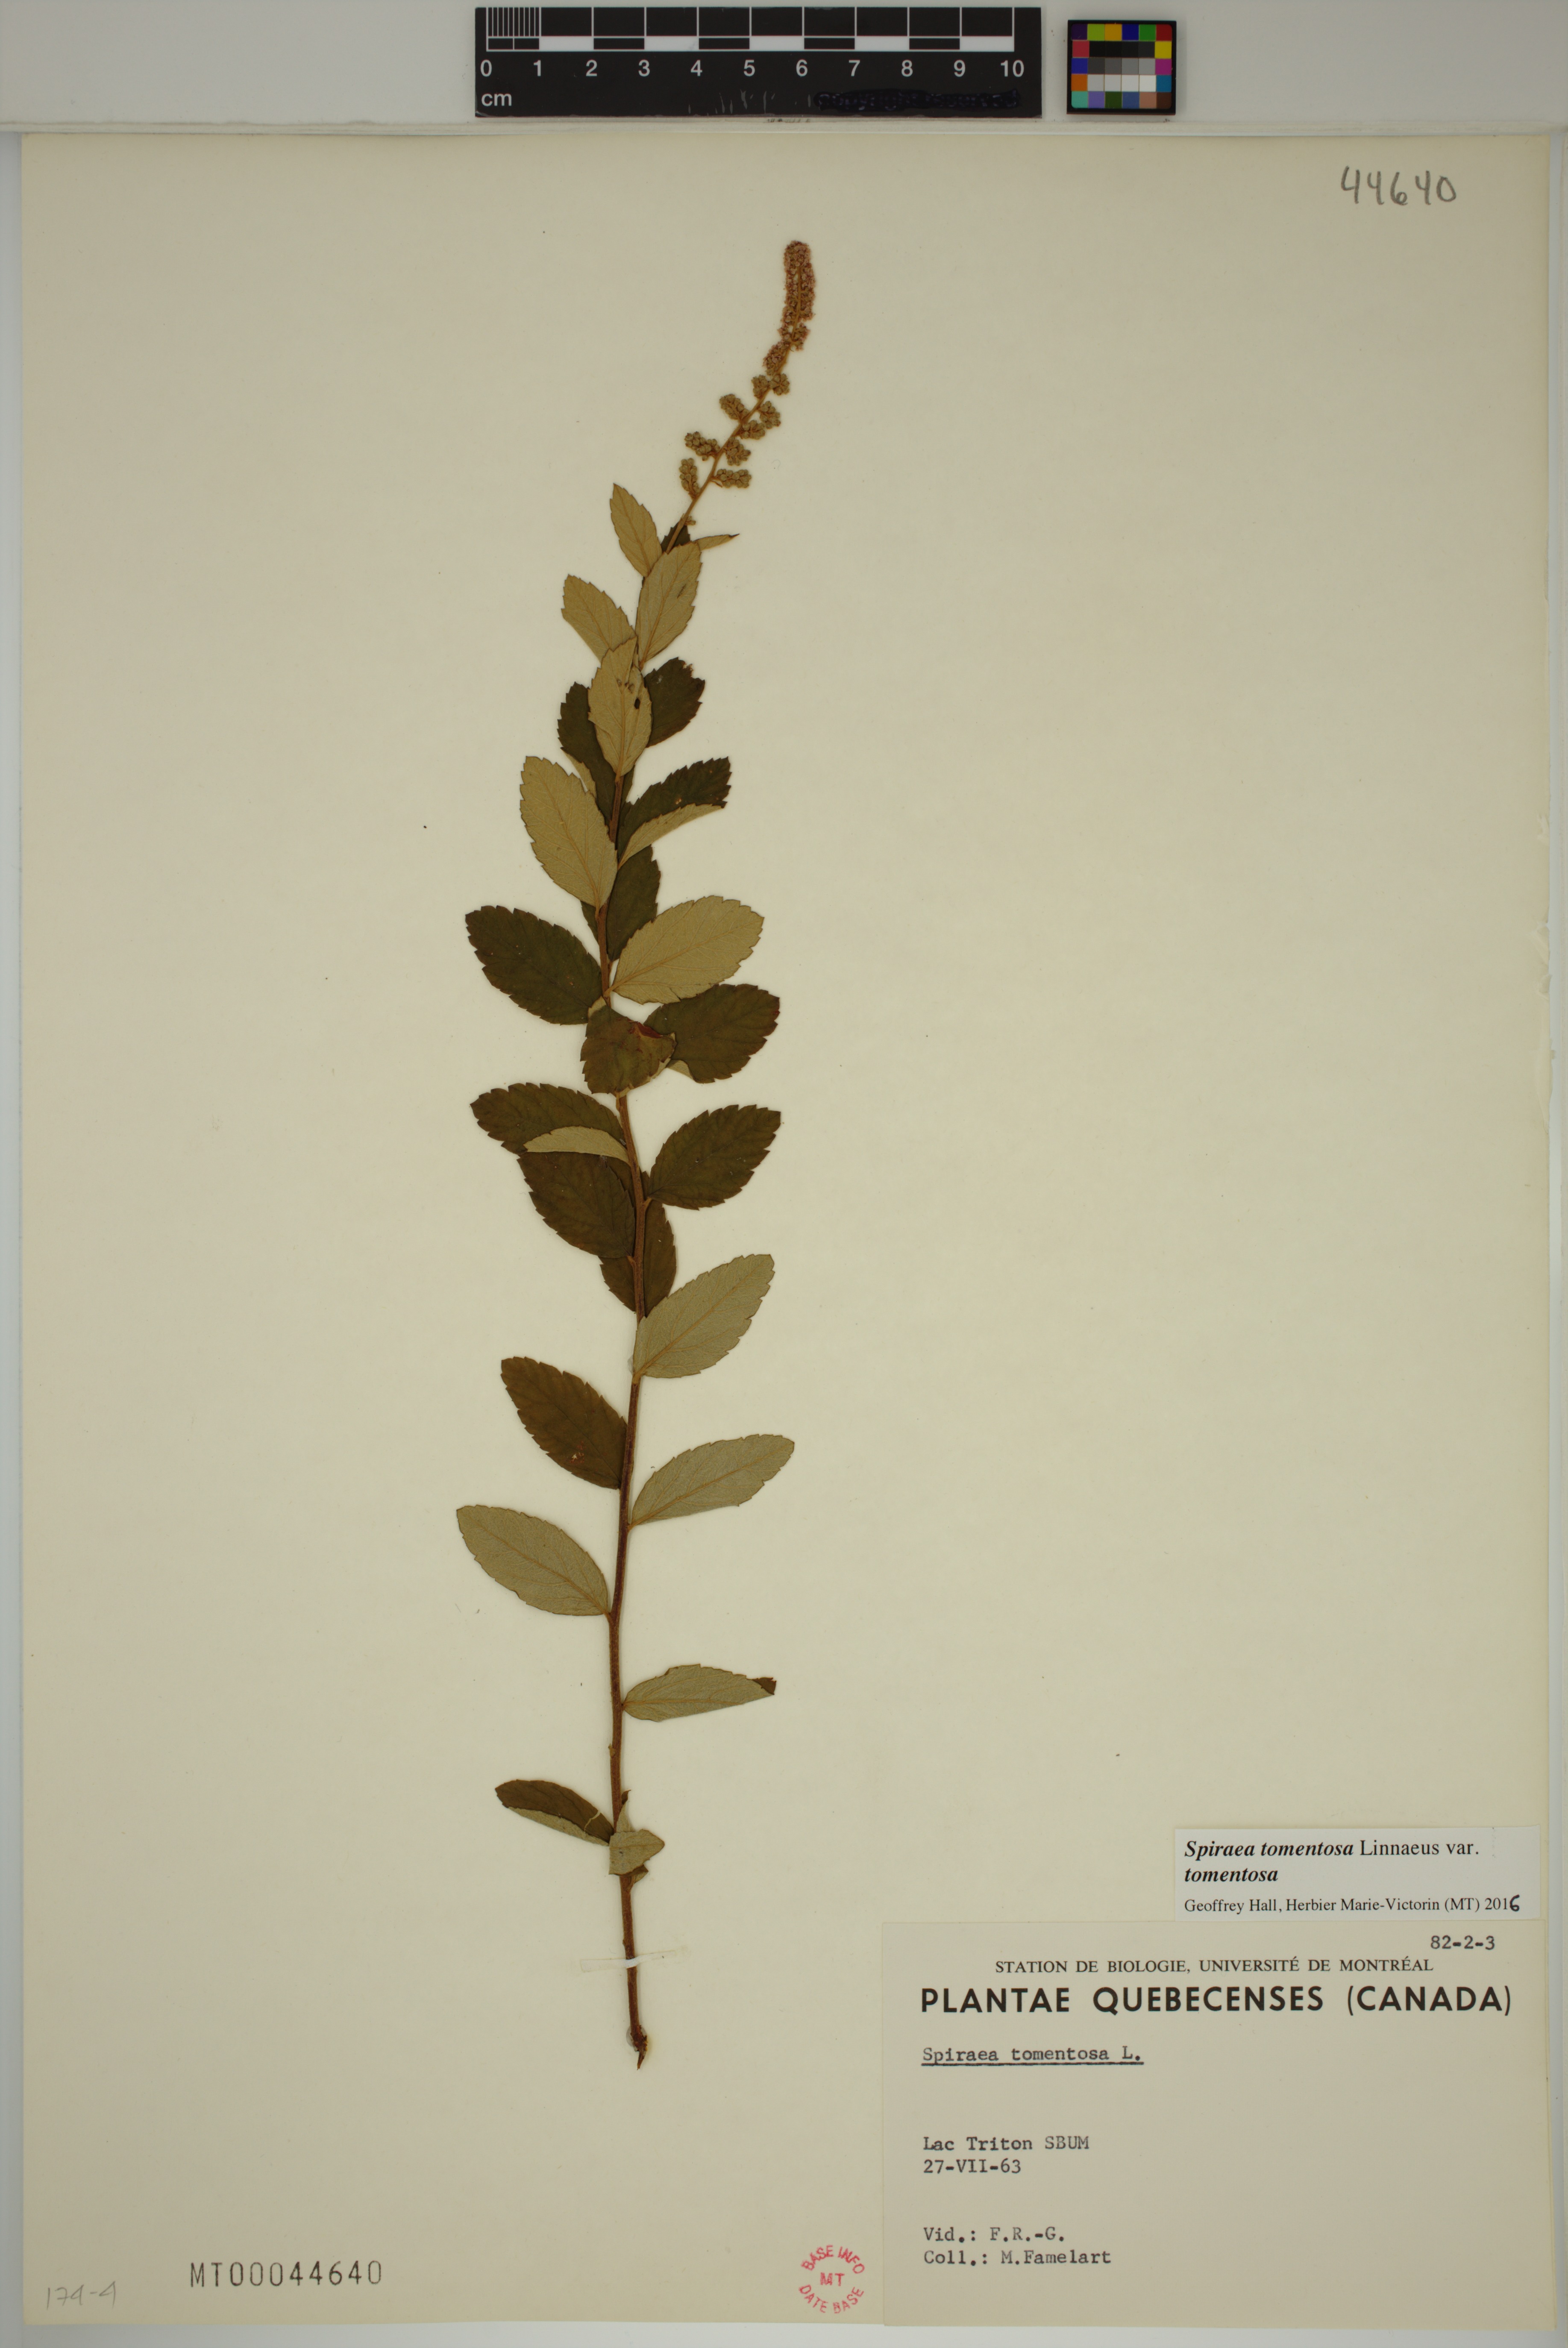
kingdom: Plantae
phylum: Tracheophyta
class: Magnoliopsida
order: Rosales
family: Rosaceae
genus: Spiraea
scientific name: Spiraea tomentosa
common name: Hardhack
